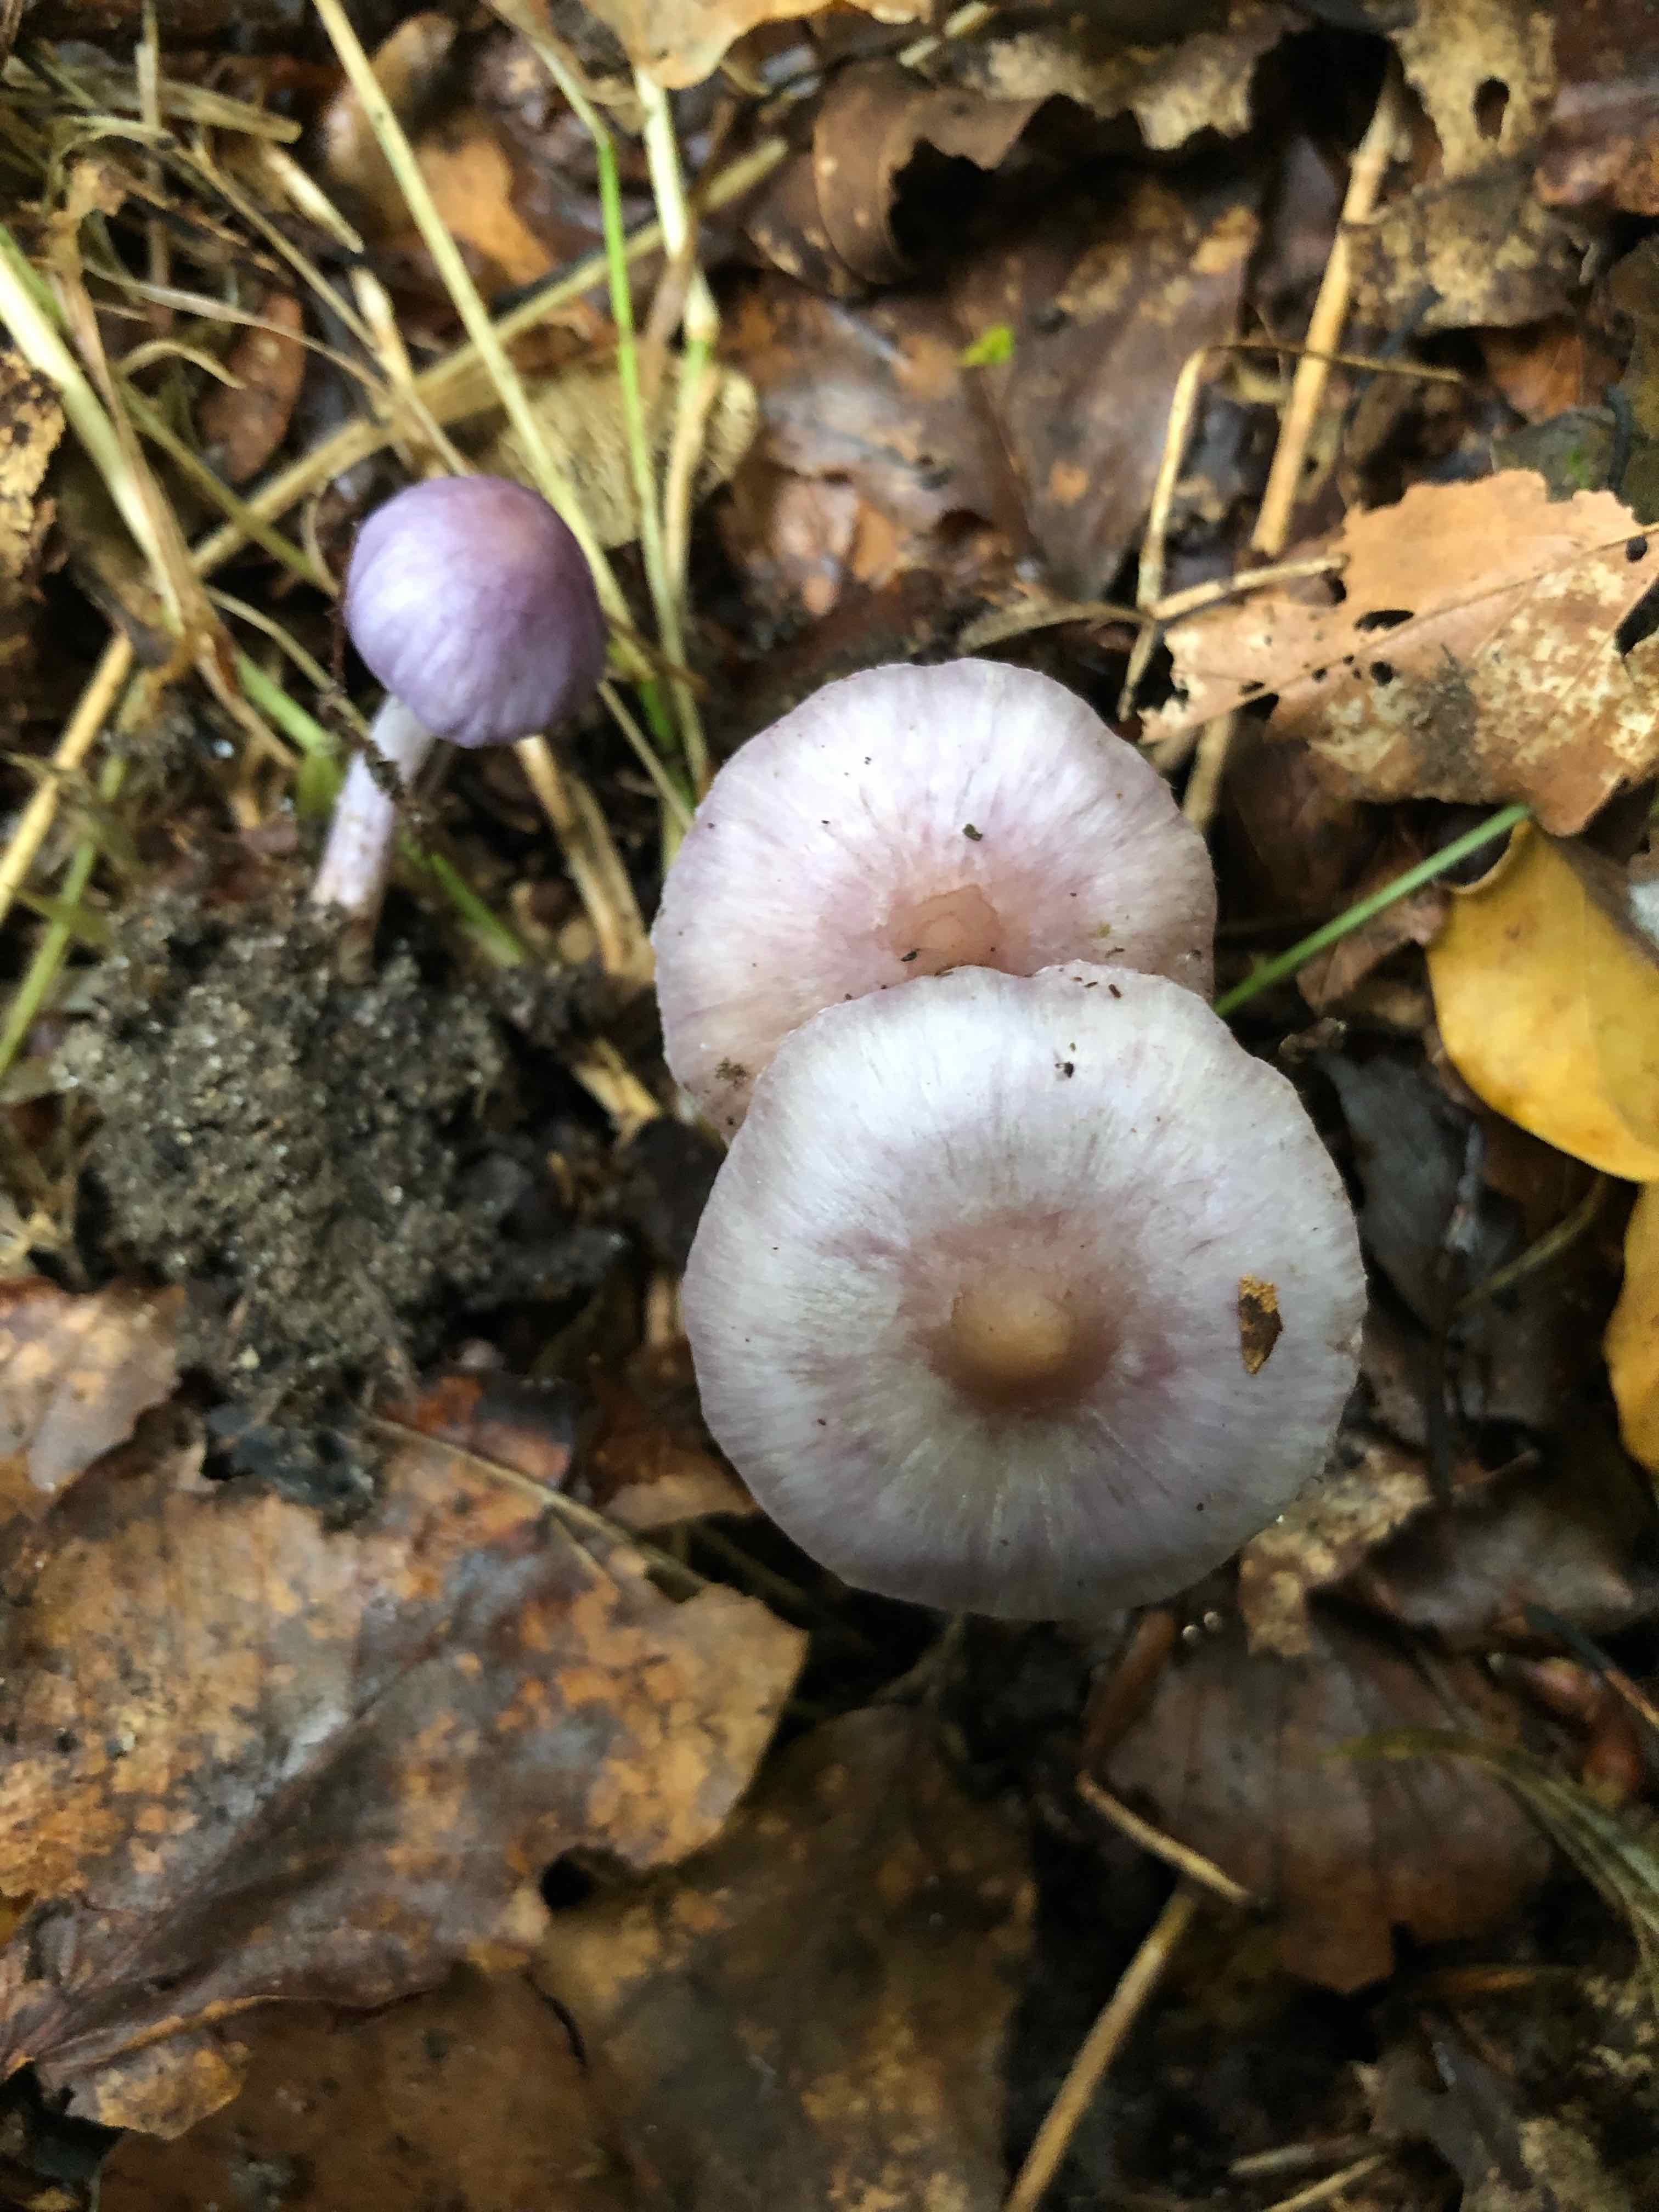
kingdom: Fungi
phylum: Basidiomycota
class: Agaricomycetes
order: Agaricales
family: Inocybaceae
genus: Inocybe
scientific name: Inocybe geophylla
